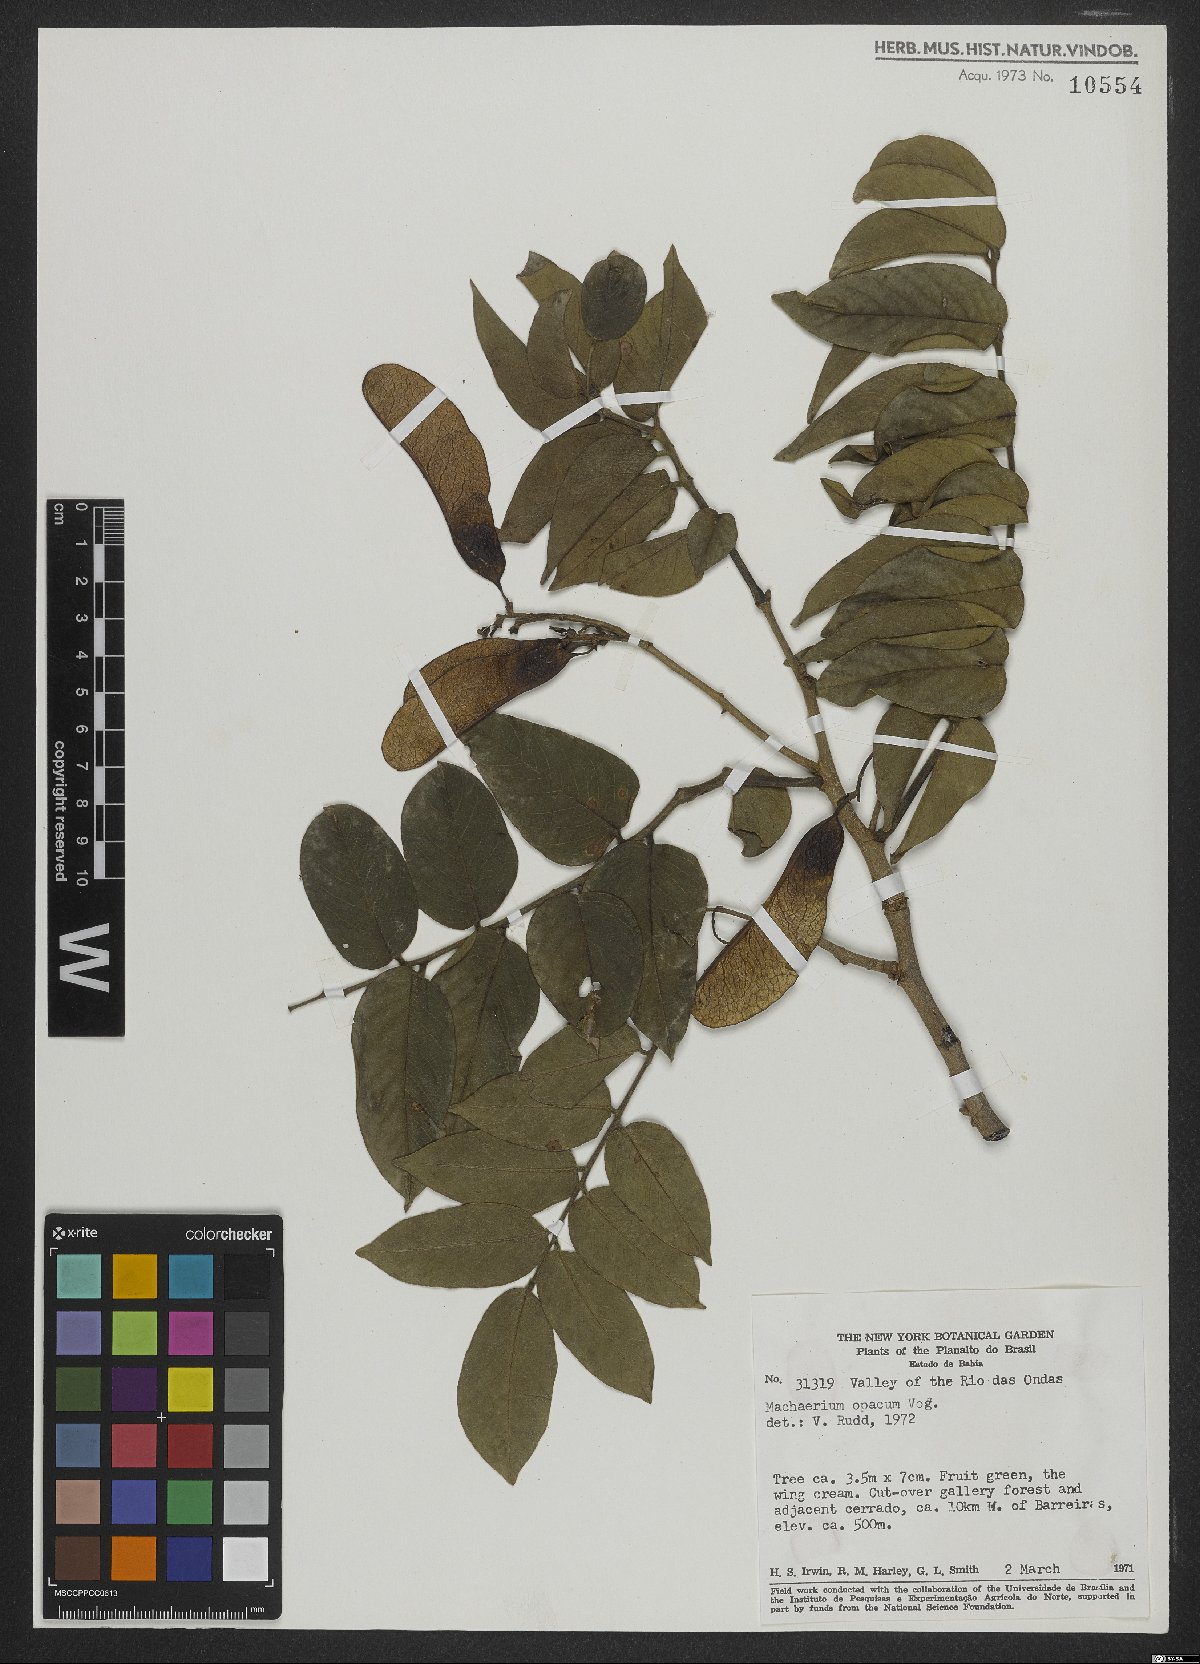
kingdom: Plantae
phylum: Tracheophyta
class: Magnoliopsida
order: Fabales
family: Fabaceae
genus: Machaerium
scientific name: Machaerium opacum
